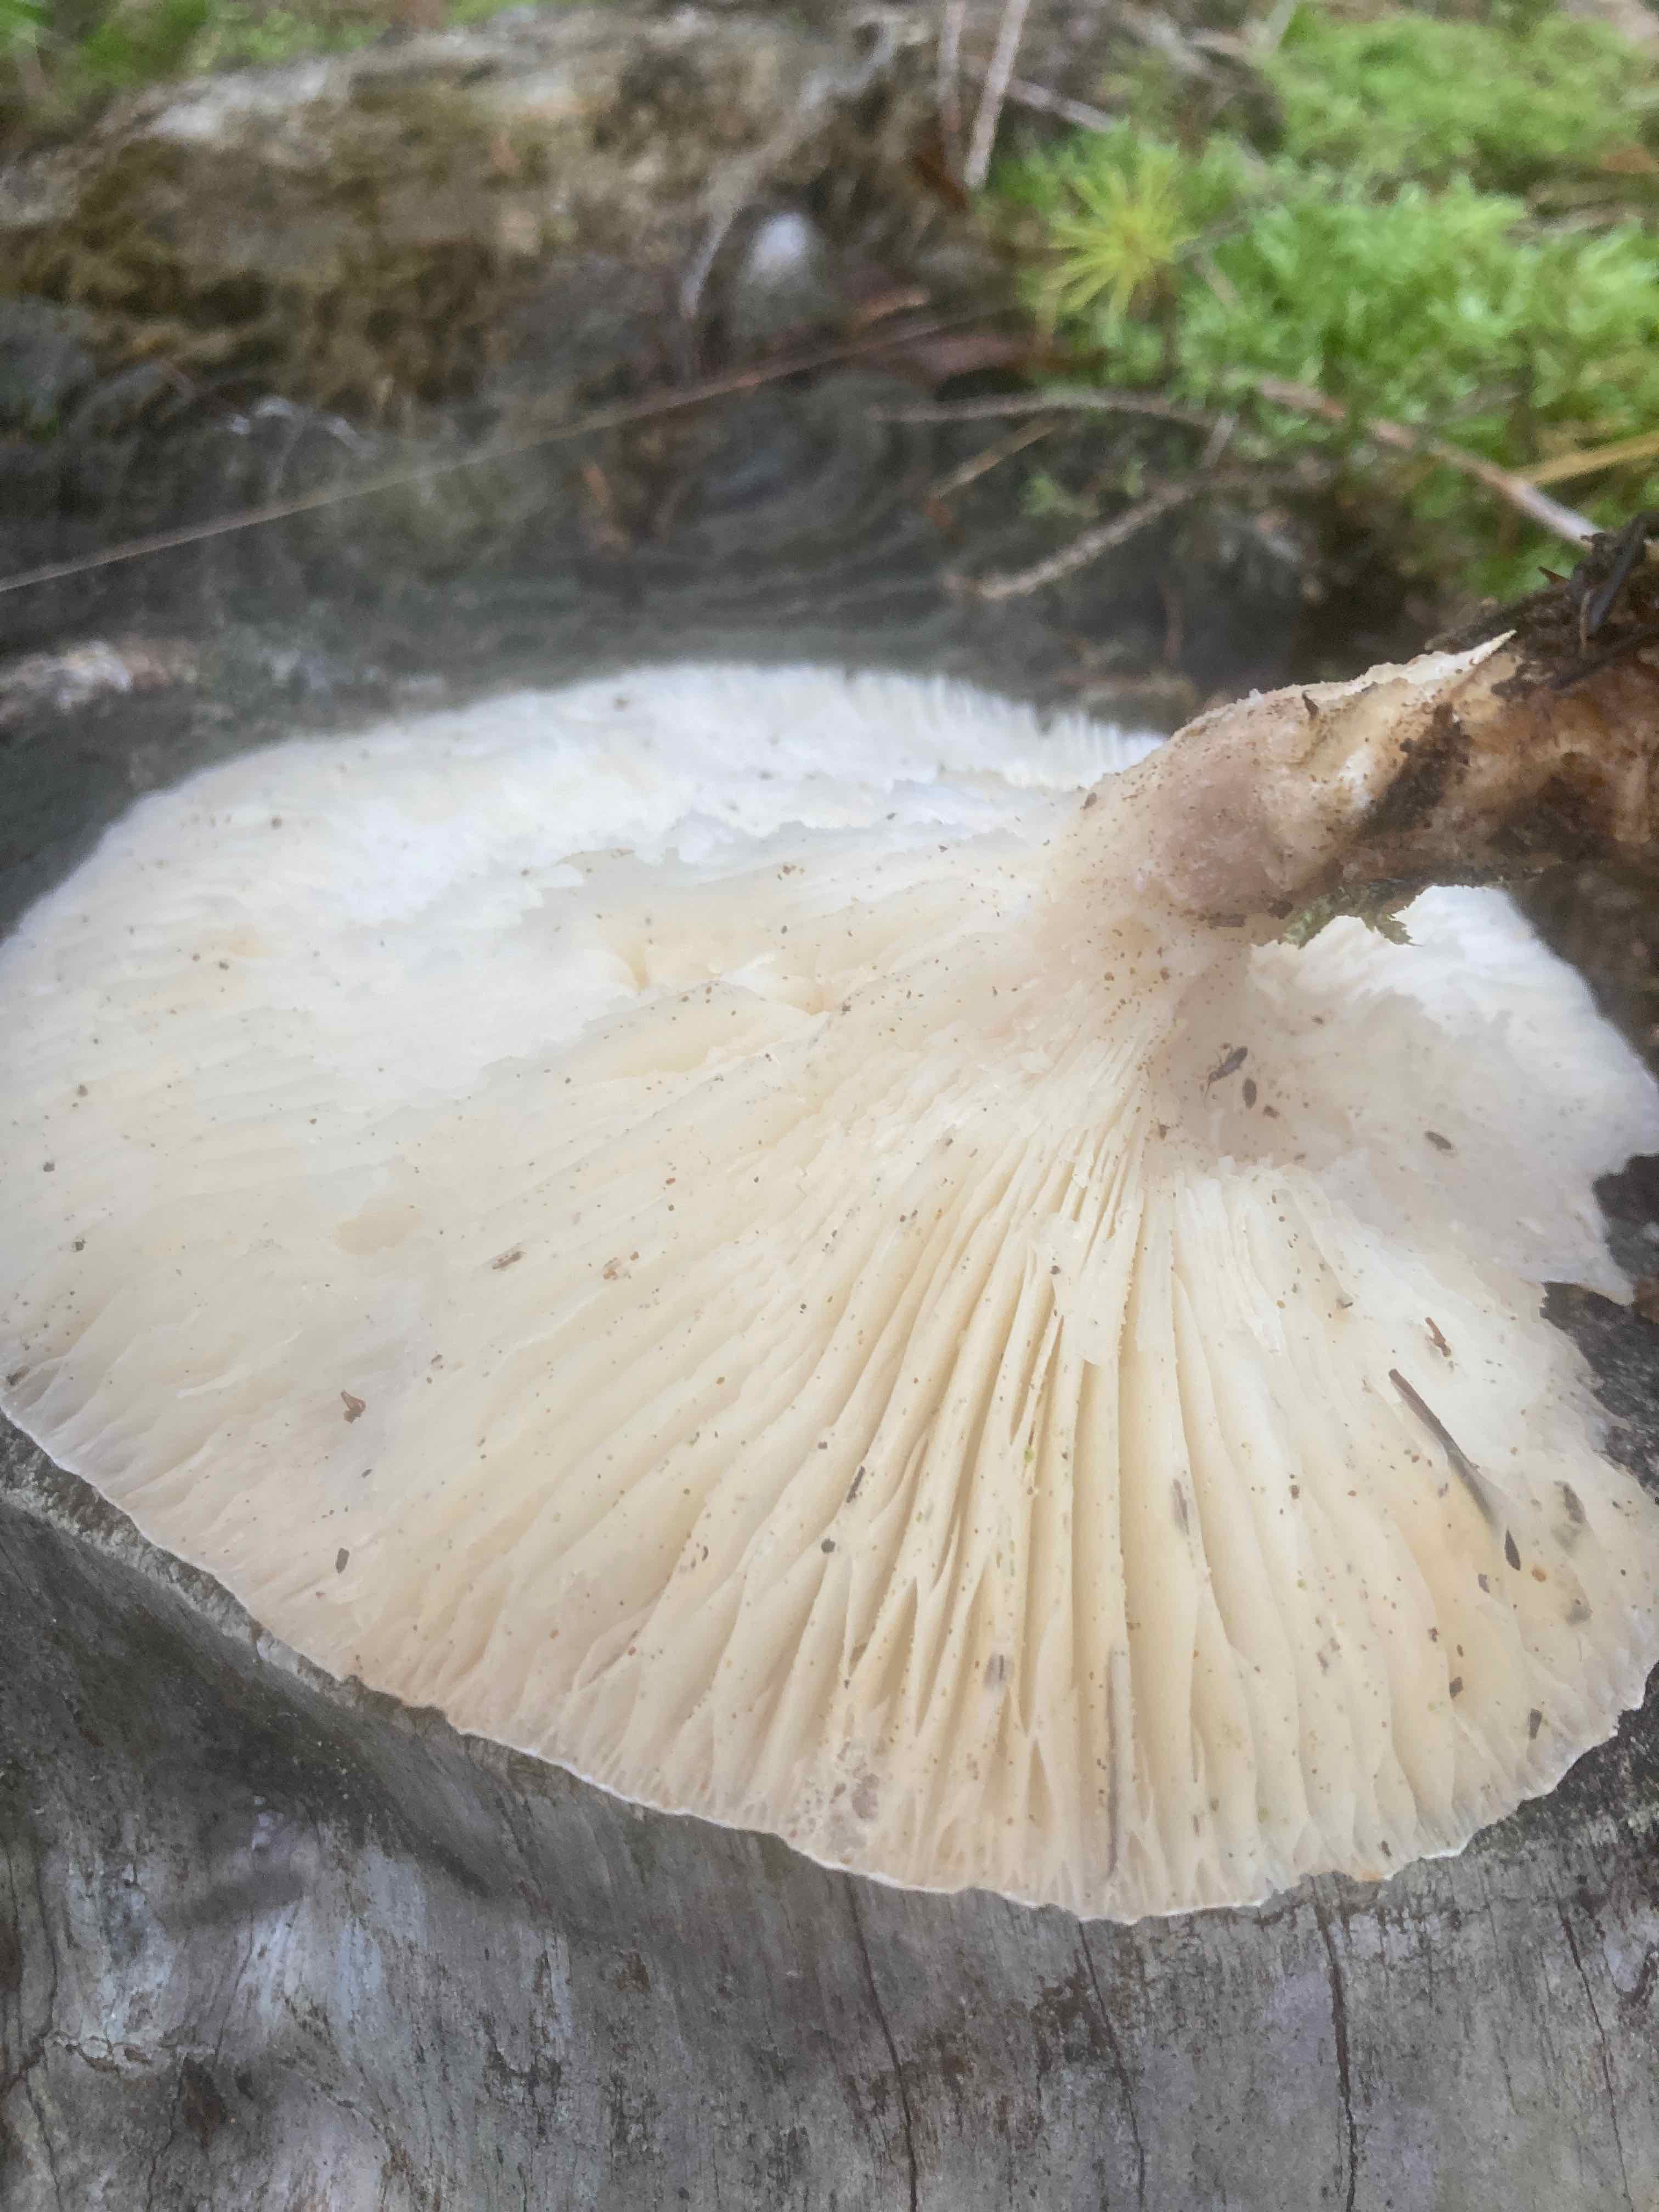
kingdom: Fungi
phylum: Basidiomycota
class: Agaricomycetes
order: Agaricales
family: Pleurotaceae
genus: Pleurotus
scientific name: Pleurotus dryinus
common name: korkagtig østershat
